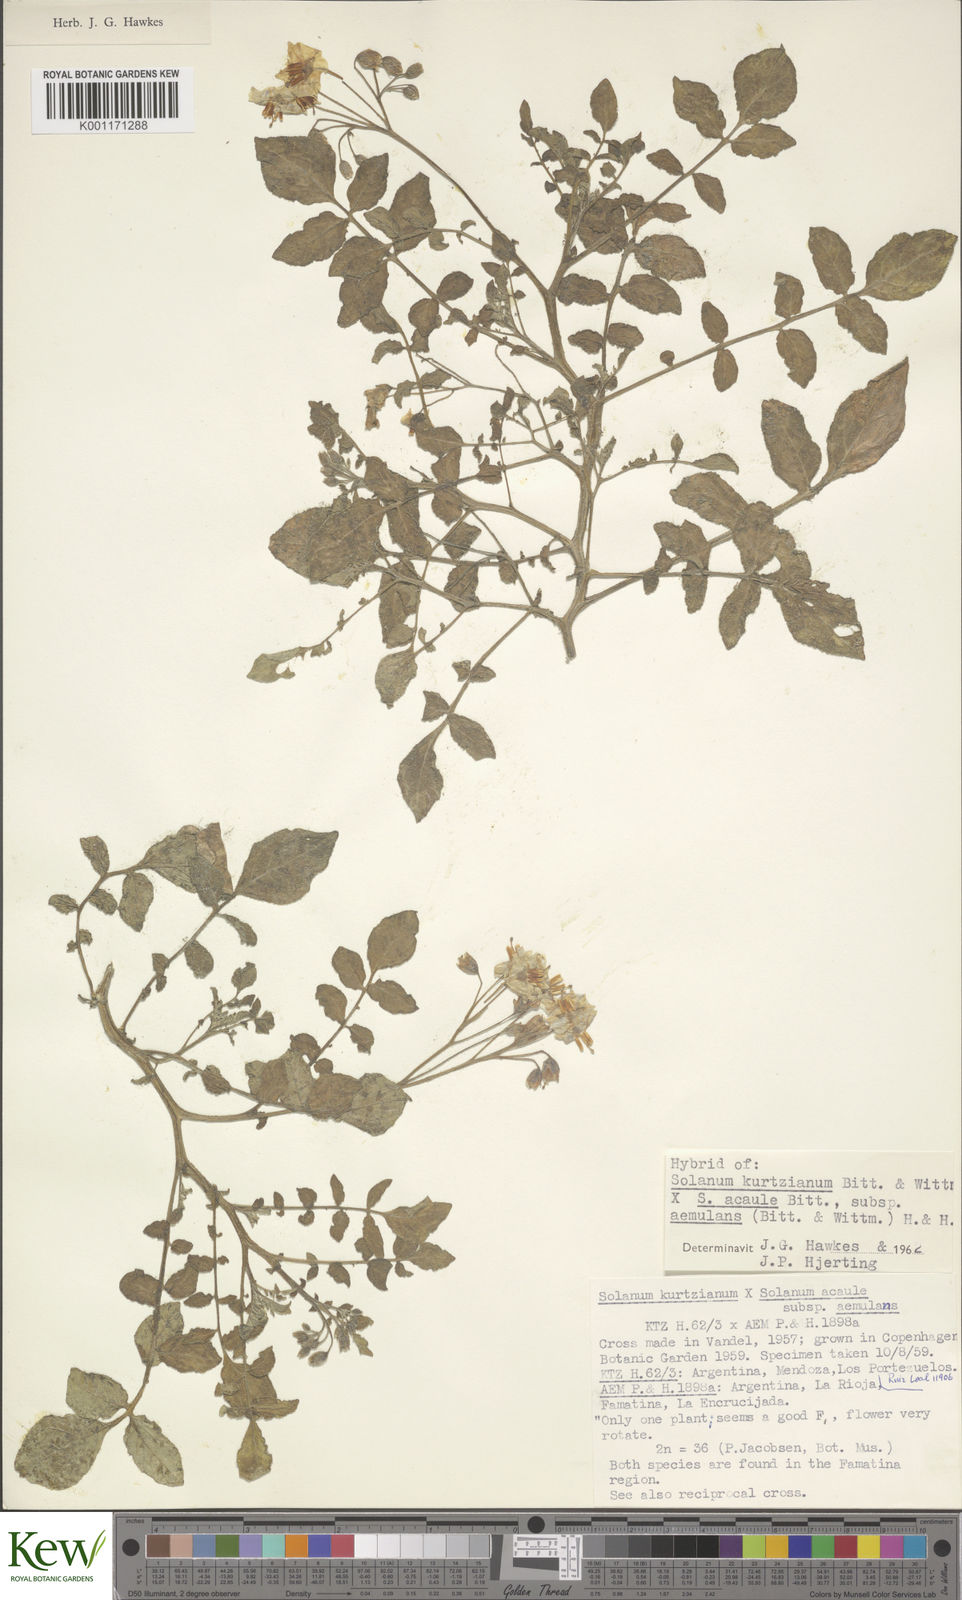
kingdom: Plantae
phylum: Tracheophyta
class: Magnoliopsida
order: Solanales
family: Solanaceae
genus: Solanum
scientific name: Solanum aemulans
